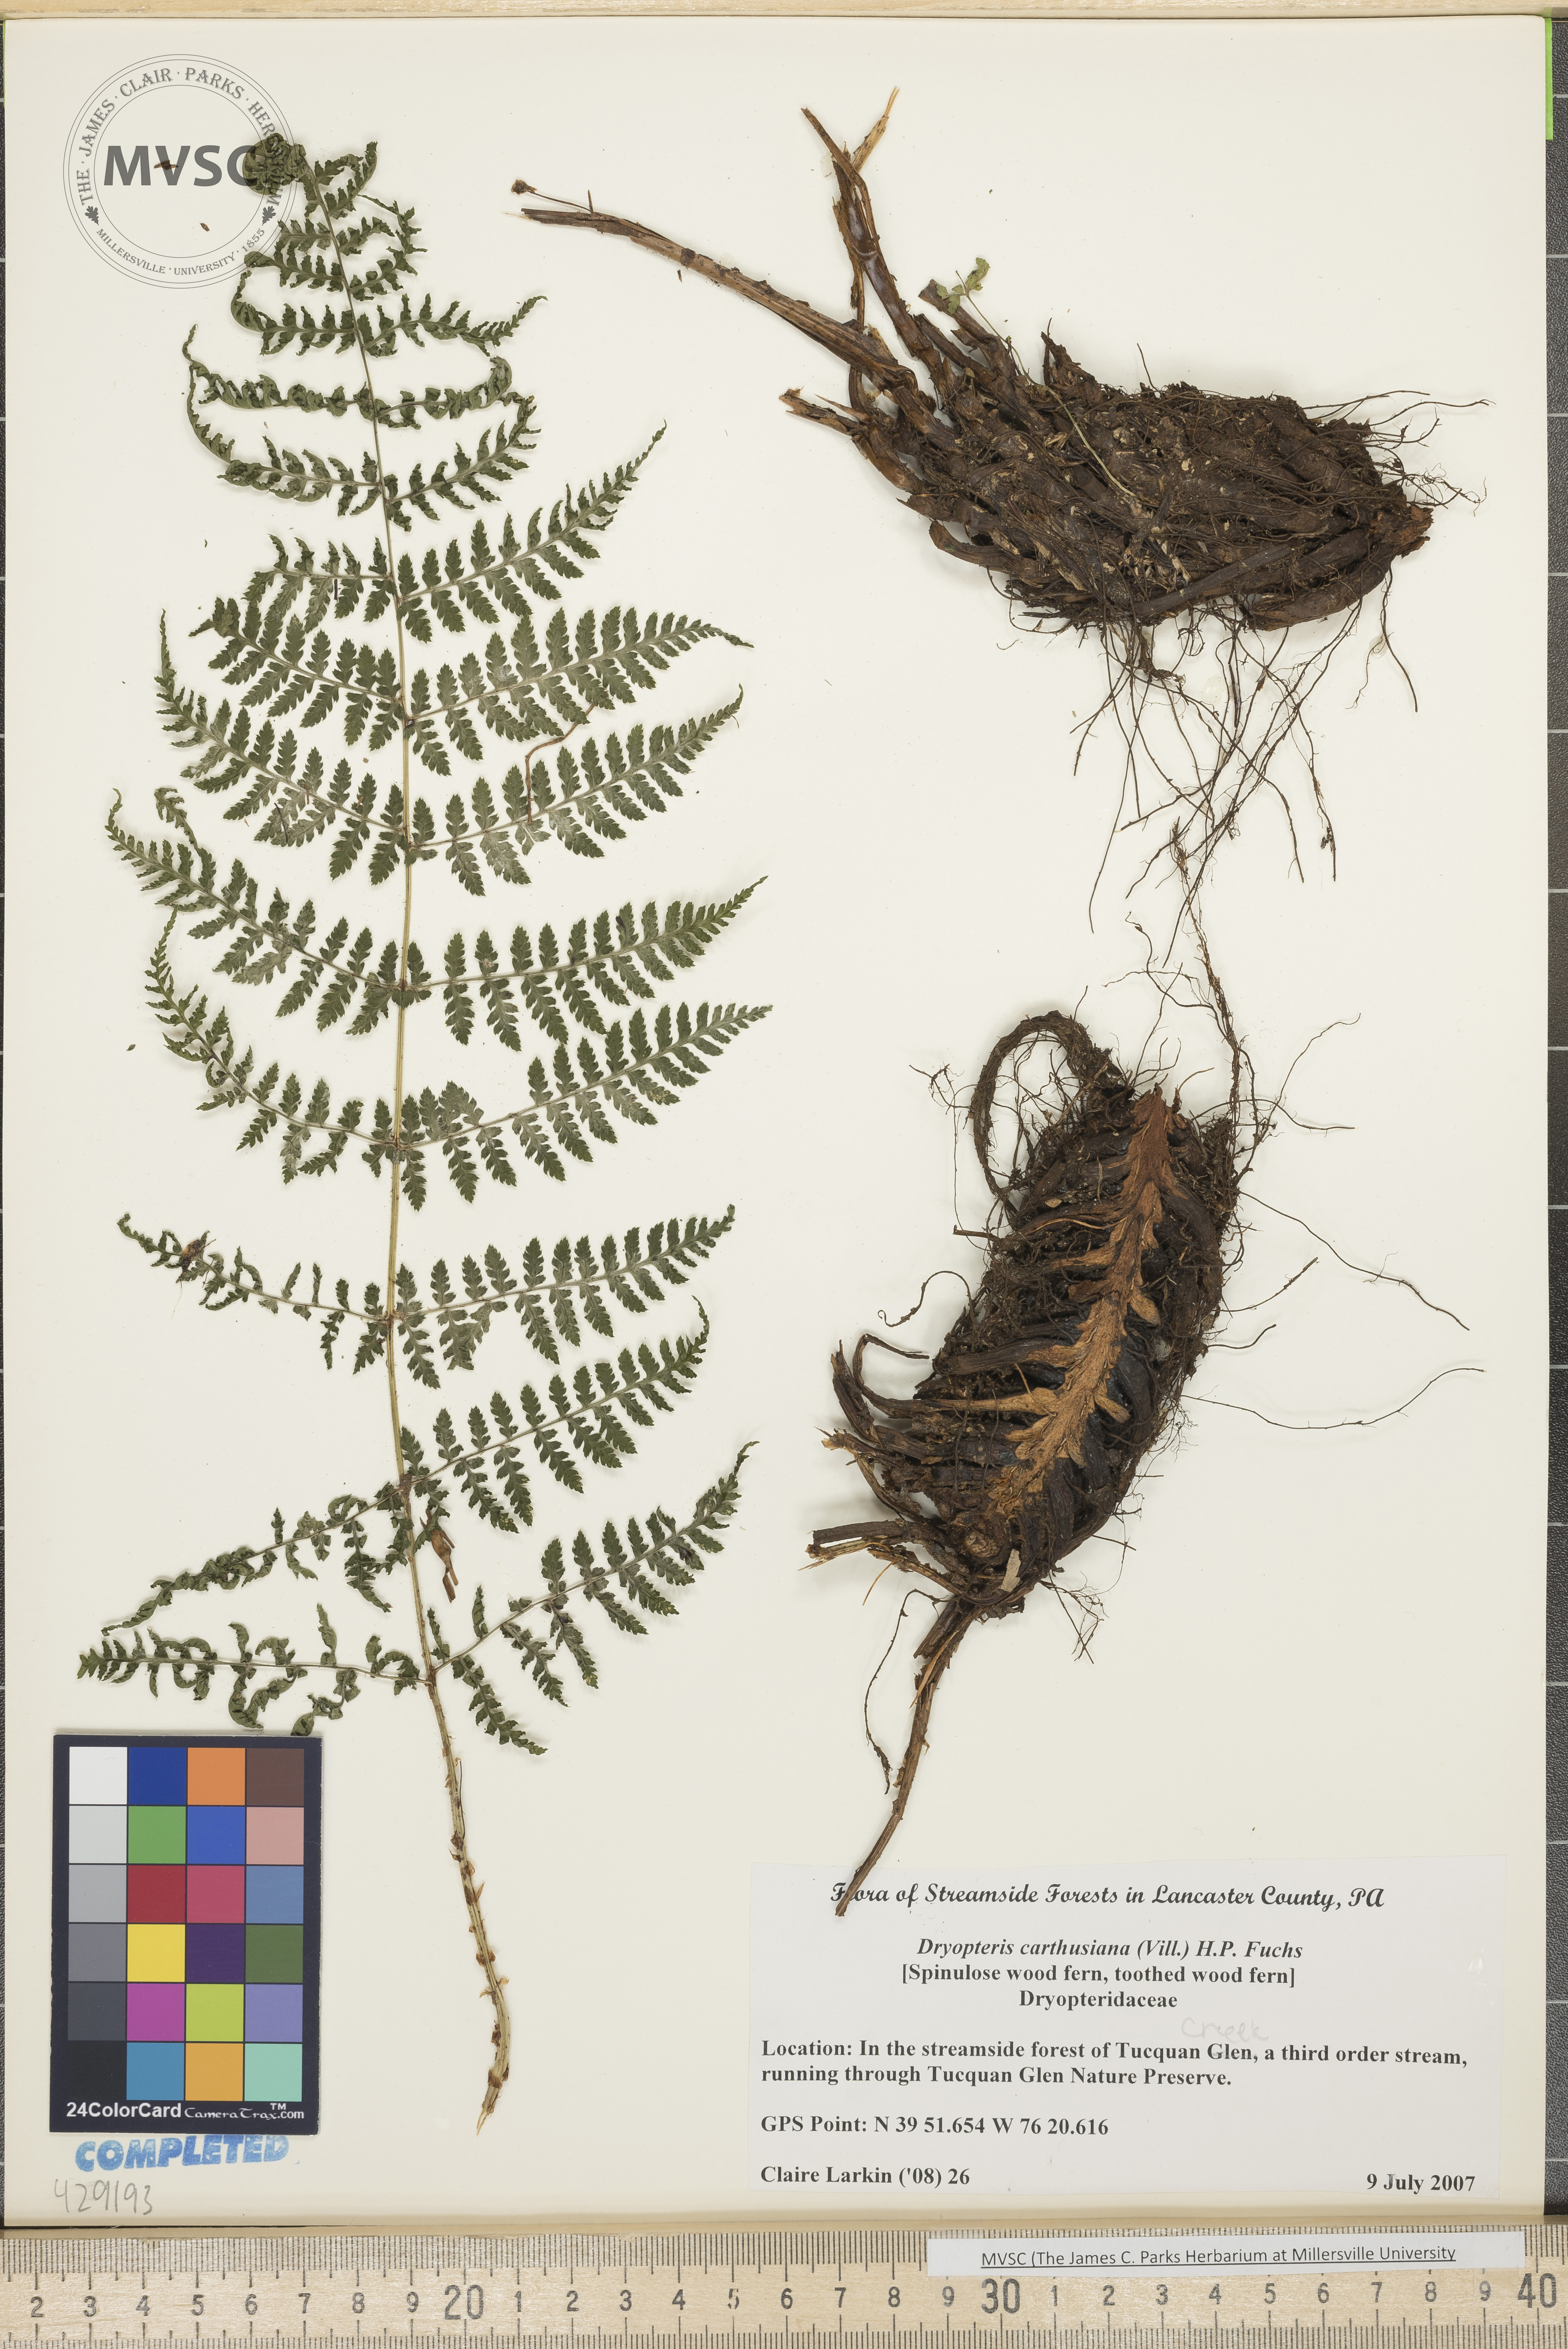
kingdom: Plantae
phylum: Tracheophyta
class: Polypodiopsida
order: Polypodiales
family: Dryopteridaceae
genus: Dryopteris
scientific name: Dryopteris carthusiana
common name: Spinulose woodfern
